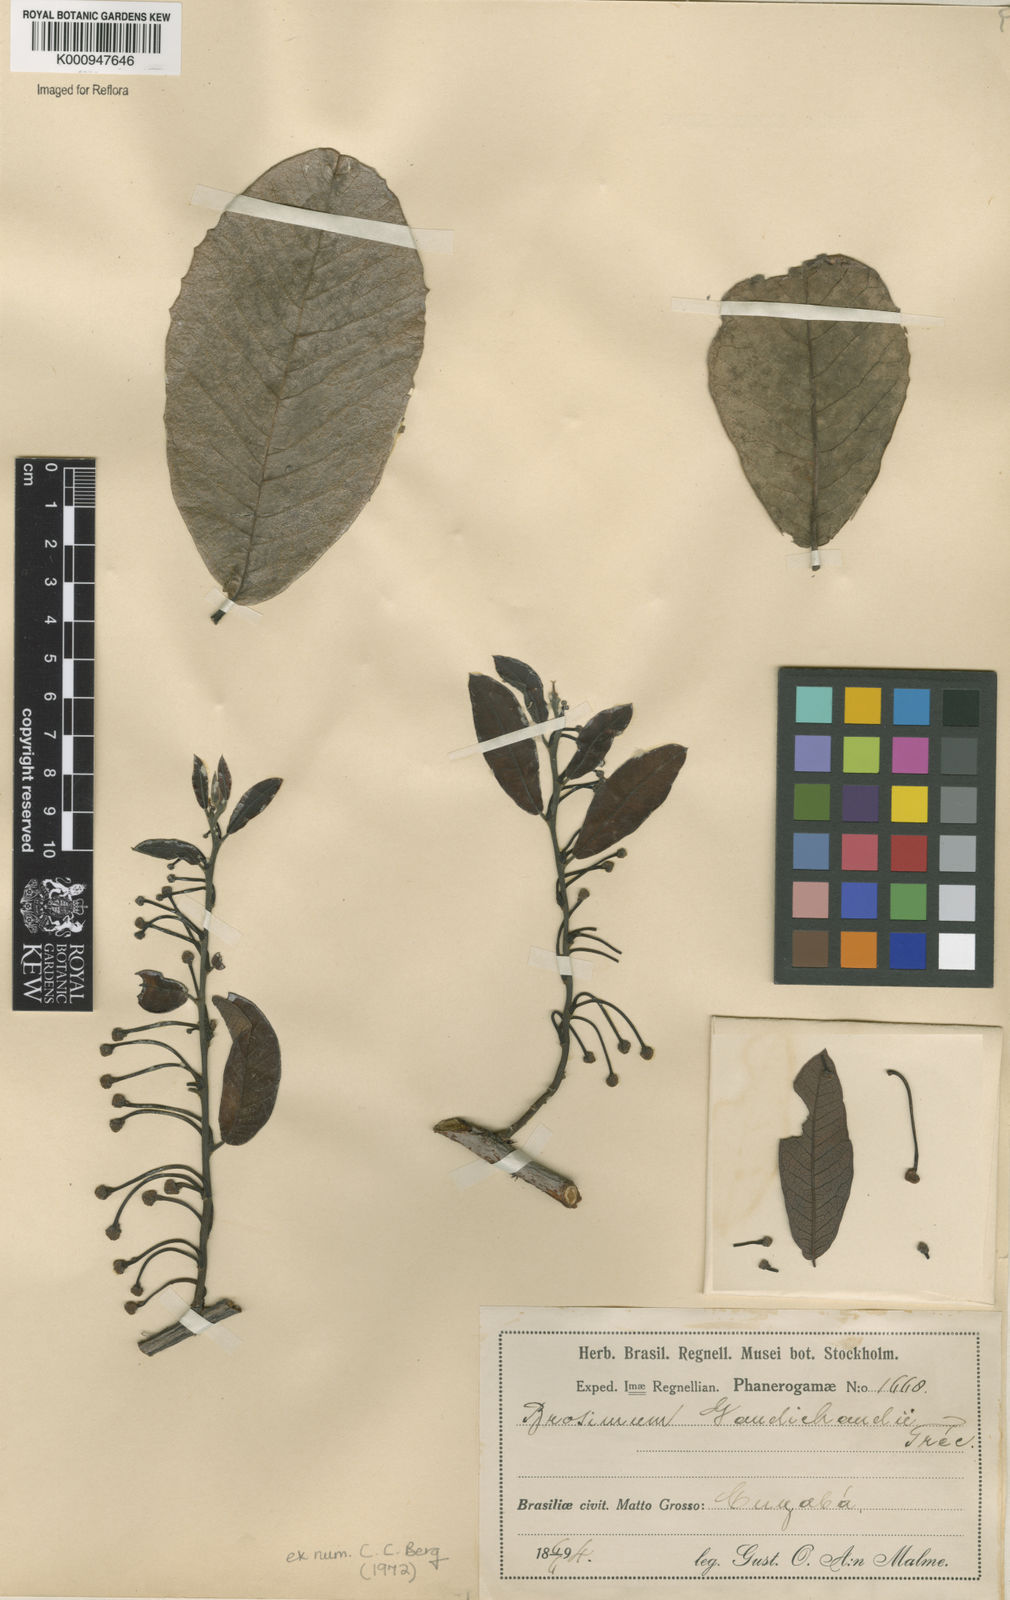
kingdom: Plantae
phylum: Tracheophyta
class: Magnoliopsida
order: Rosales
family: Moraceae
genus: Brosimum
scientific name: Brosimum
